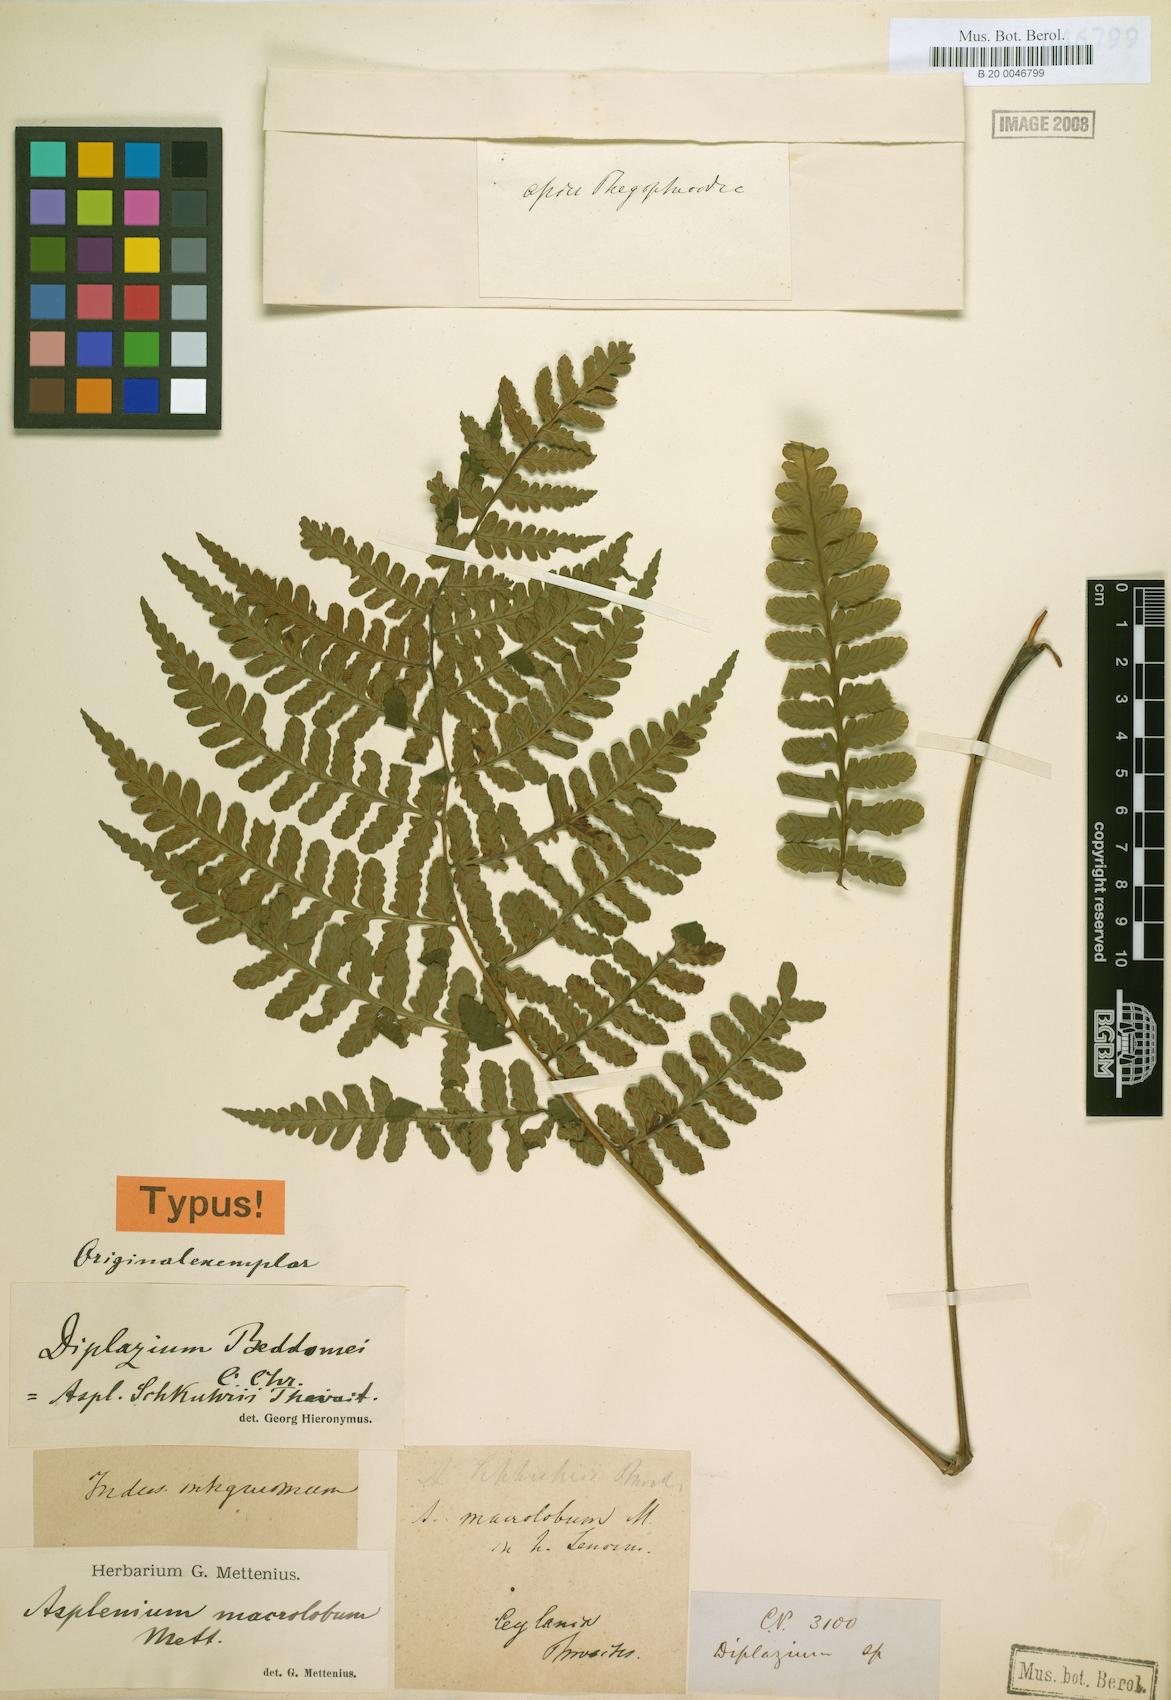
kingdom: Plantae
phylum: Tracheophyta
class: Polypodiopsida
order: Polypodiales
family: Athyriaceae
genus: Diplazium
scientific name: Diplazium beddomei
